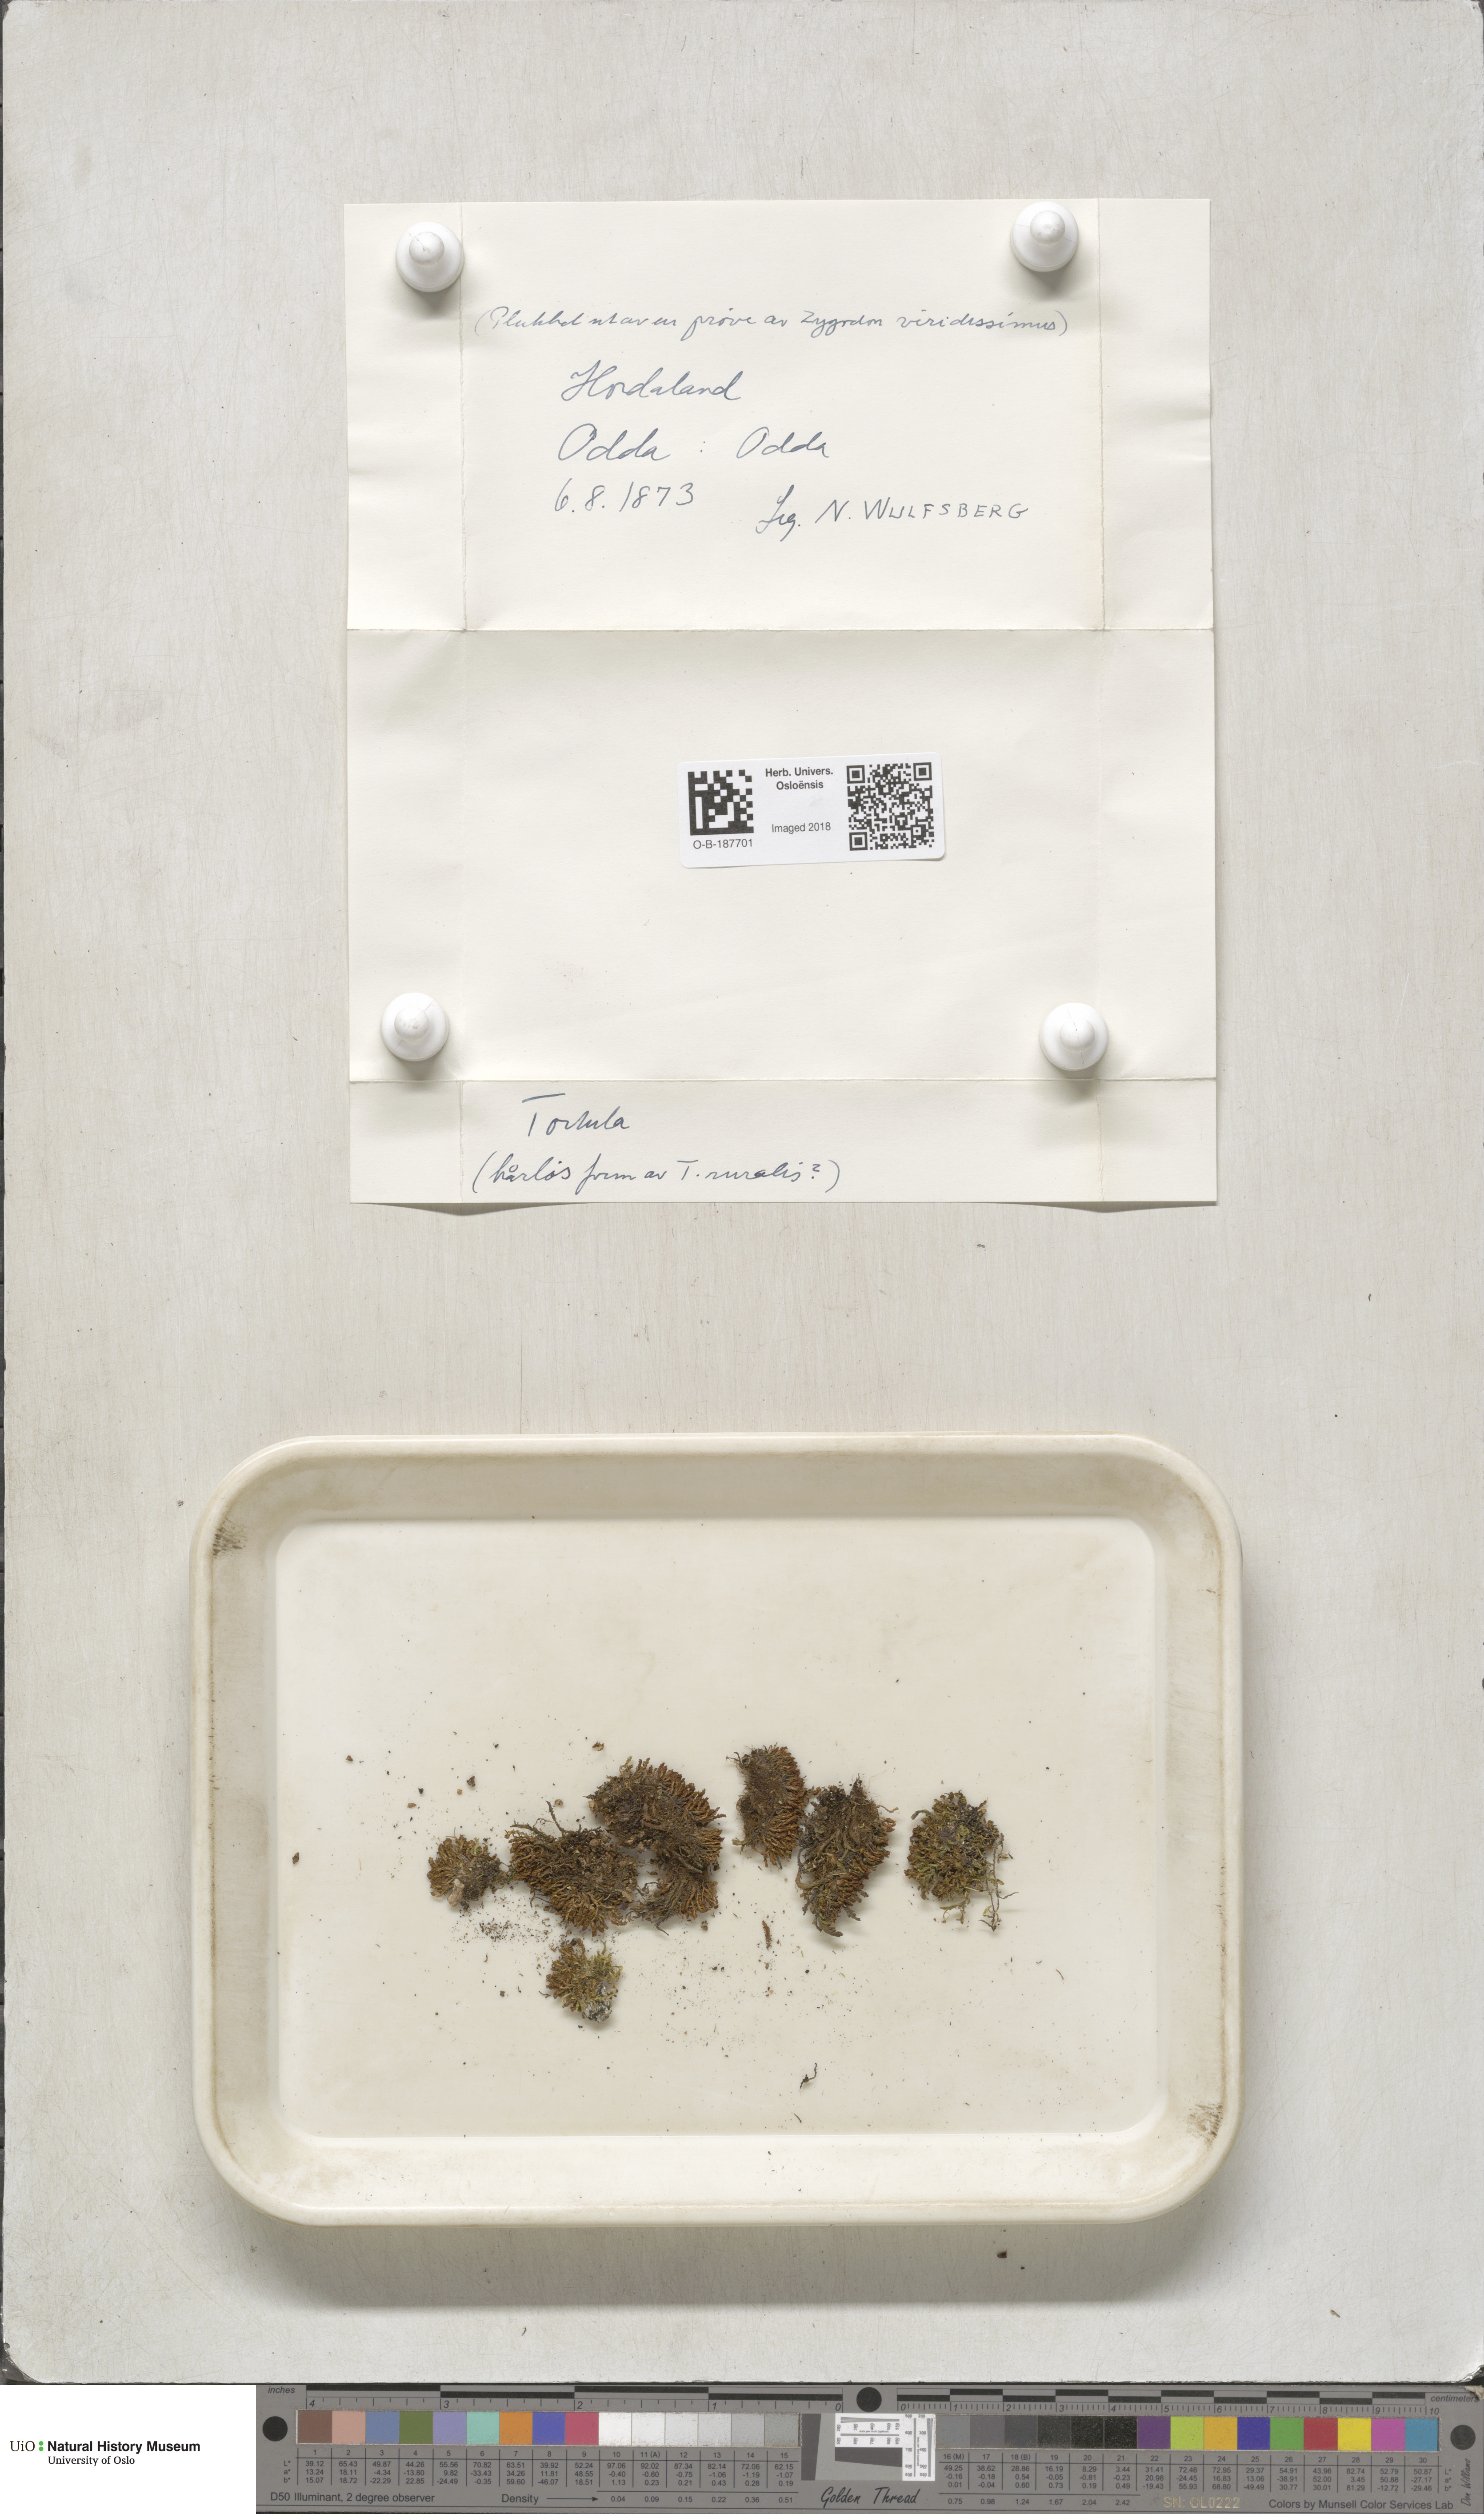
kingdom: Plantae
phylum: Bryophyta
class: Bryopsida
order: Pottiales
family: Pottiaceae
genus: Syntrichia
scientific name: Syntrichia ruralis
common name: Sidewalk screw moss
